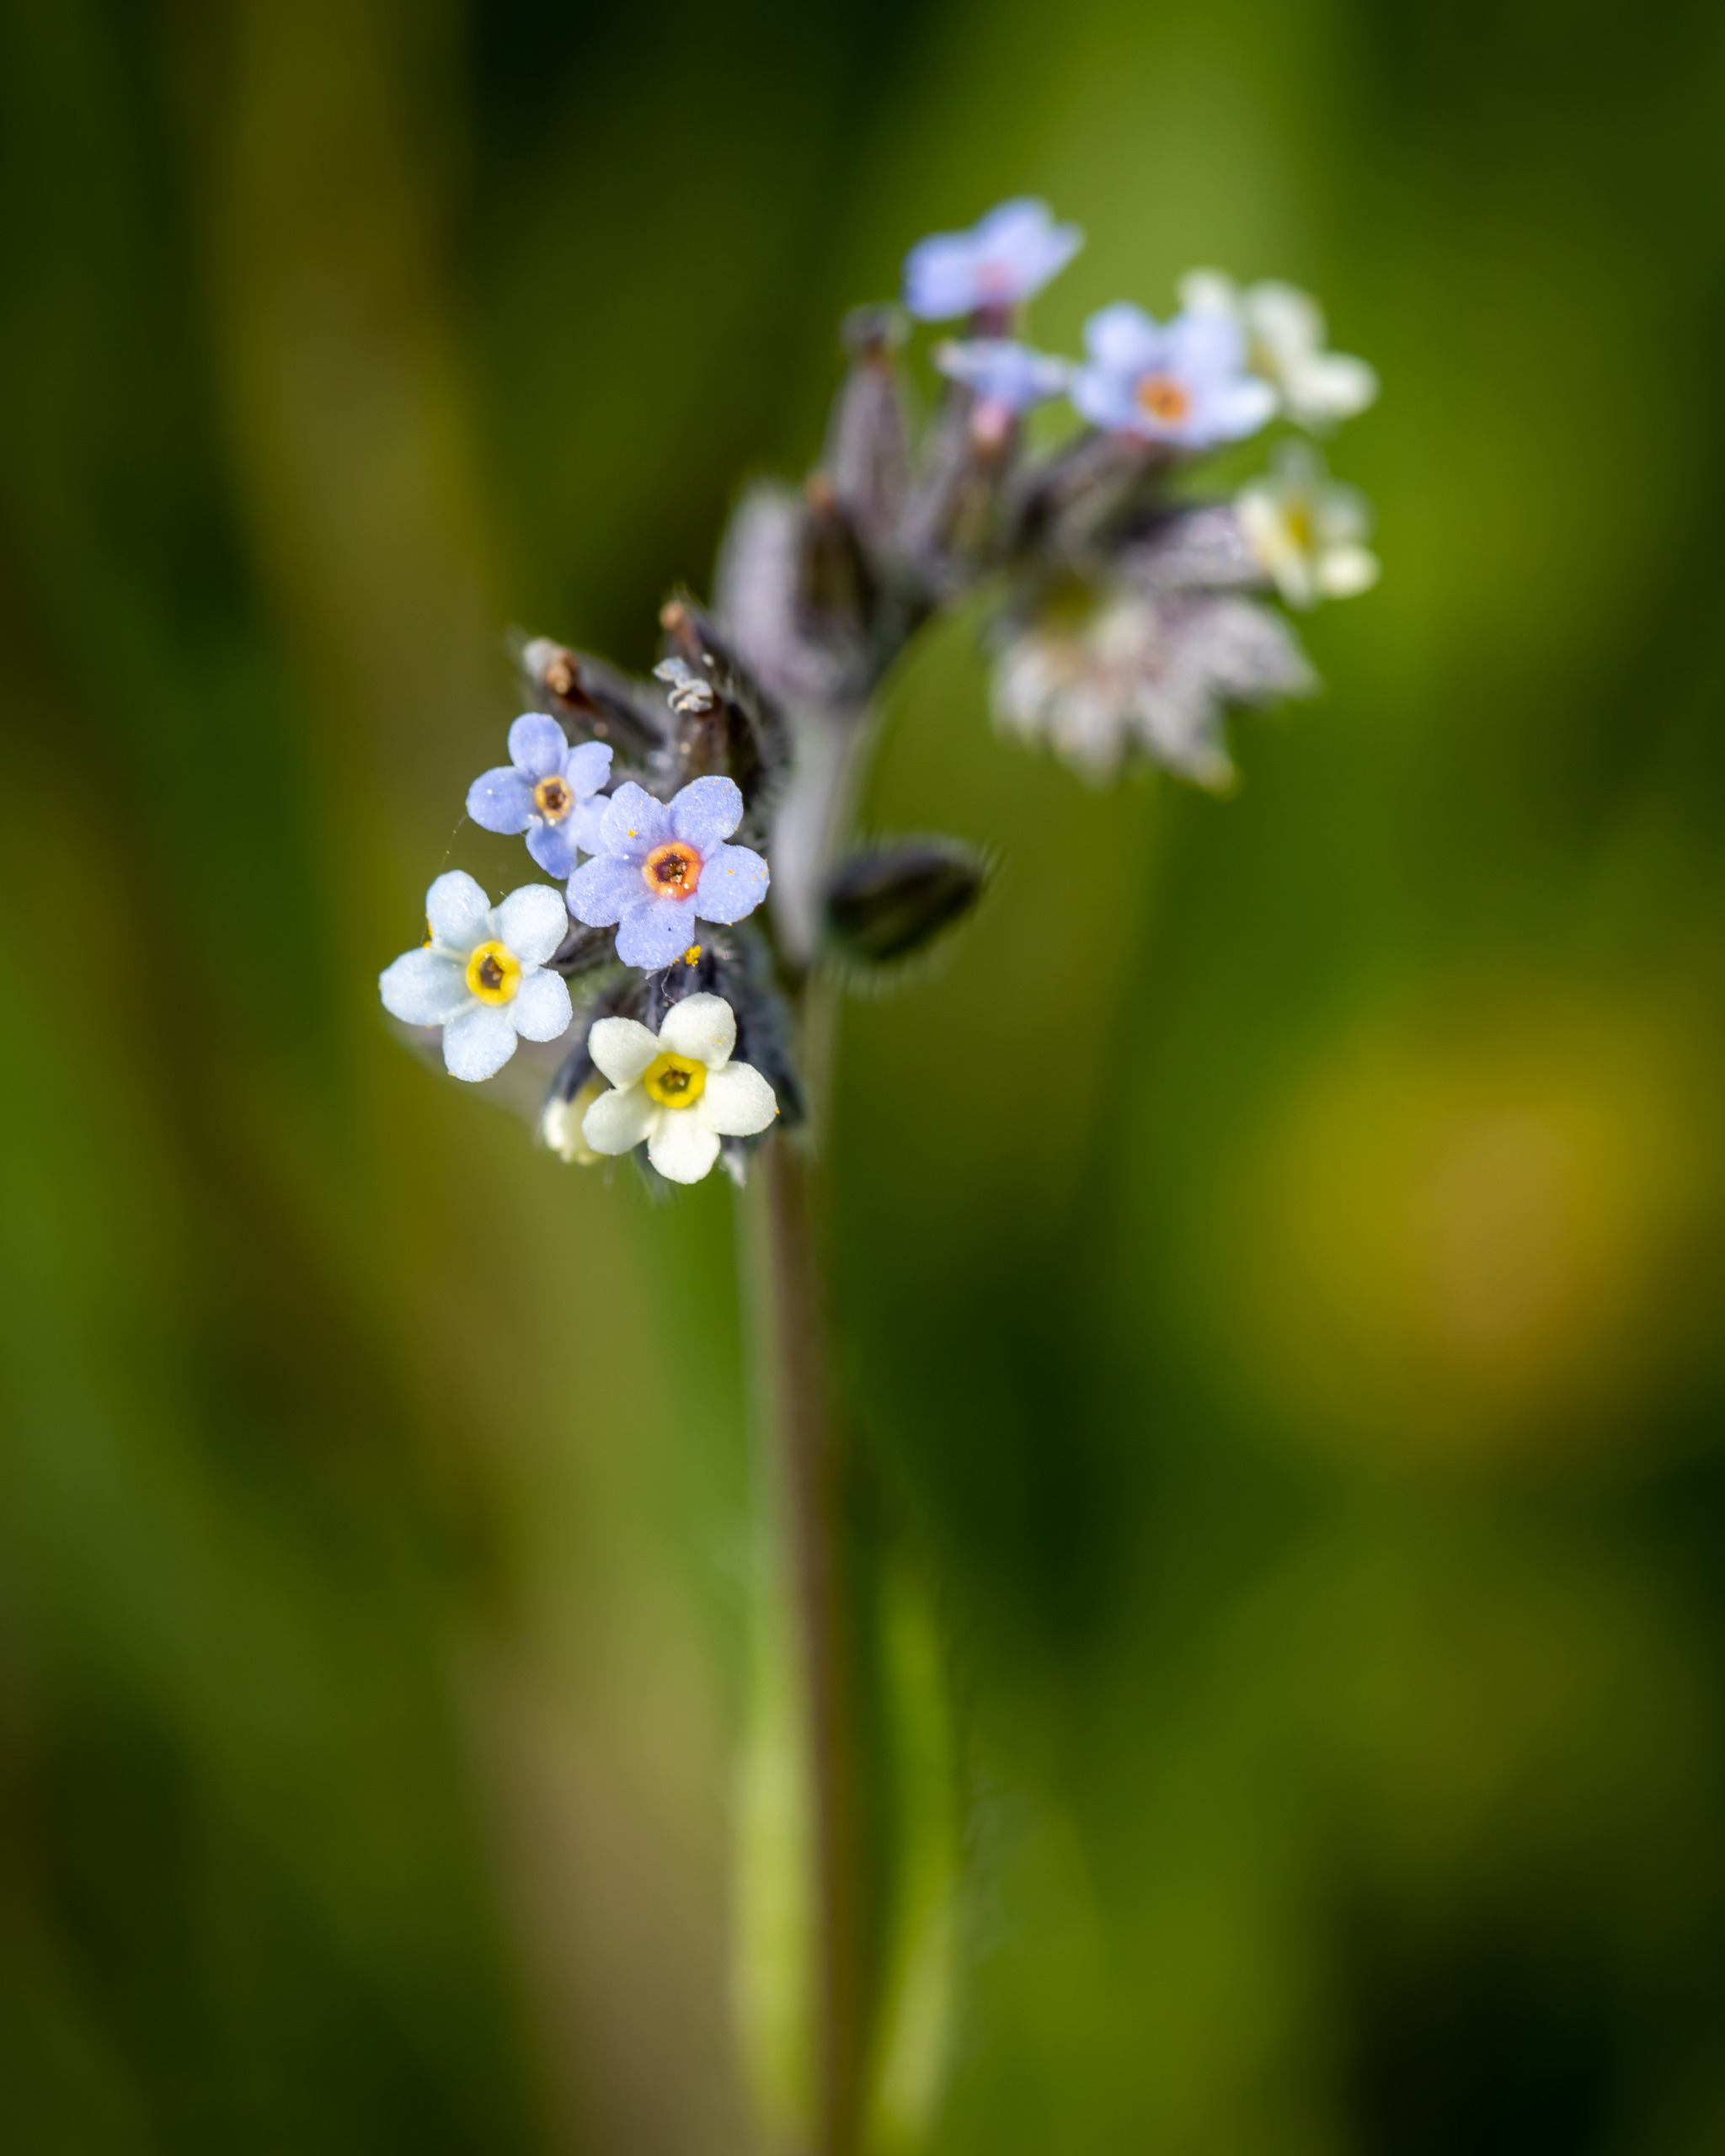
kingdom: Plantae
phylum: Tracheophyta
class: Magnoliopsida
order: Boraginales
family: Boraginaceae
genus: Myosotis
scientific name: Myosotis discolor
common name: Forskelligfarvet forglemmigej
